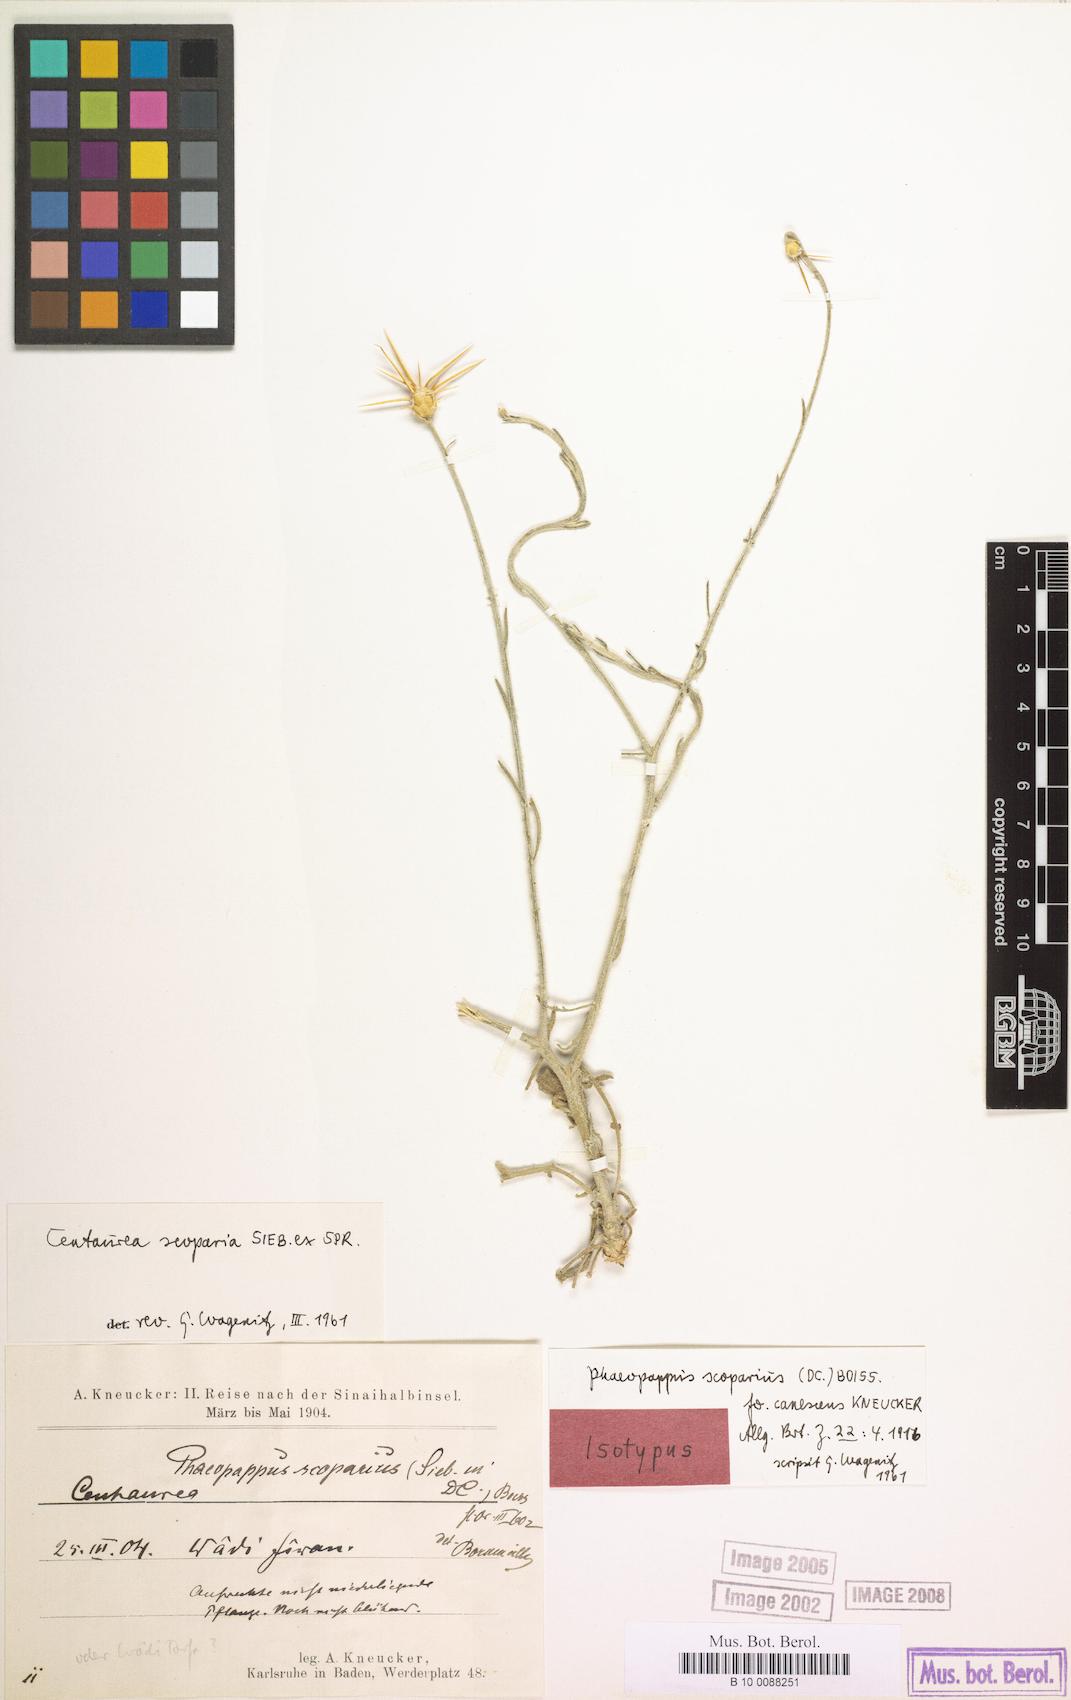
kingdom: Plantae
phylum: Tracheophyta
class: Magnoliopsida
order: Asterales
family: Asteraceae
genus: Centaurea
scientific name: Centaurea scoparia
